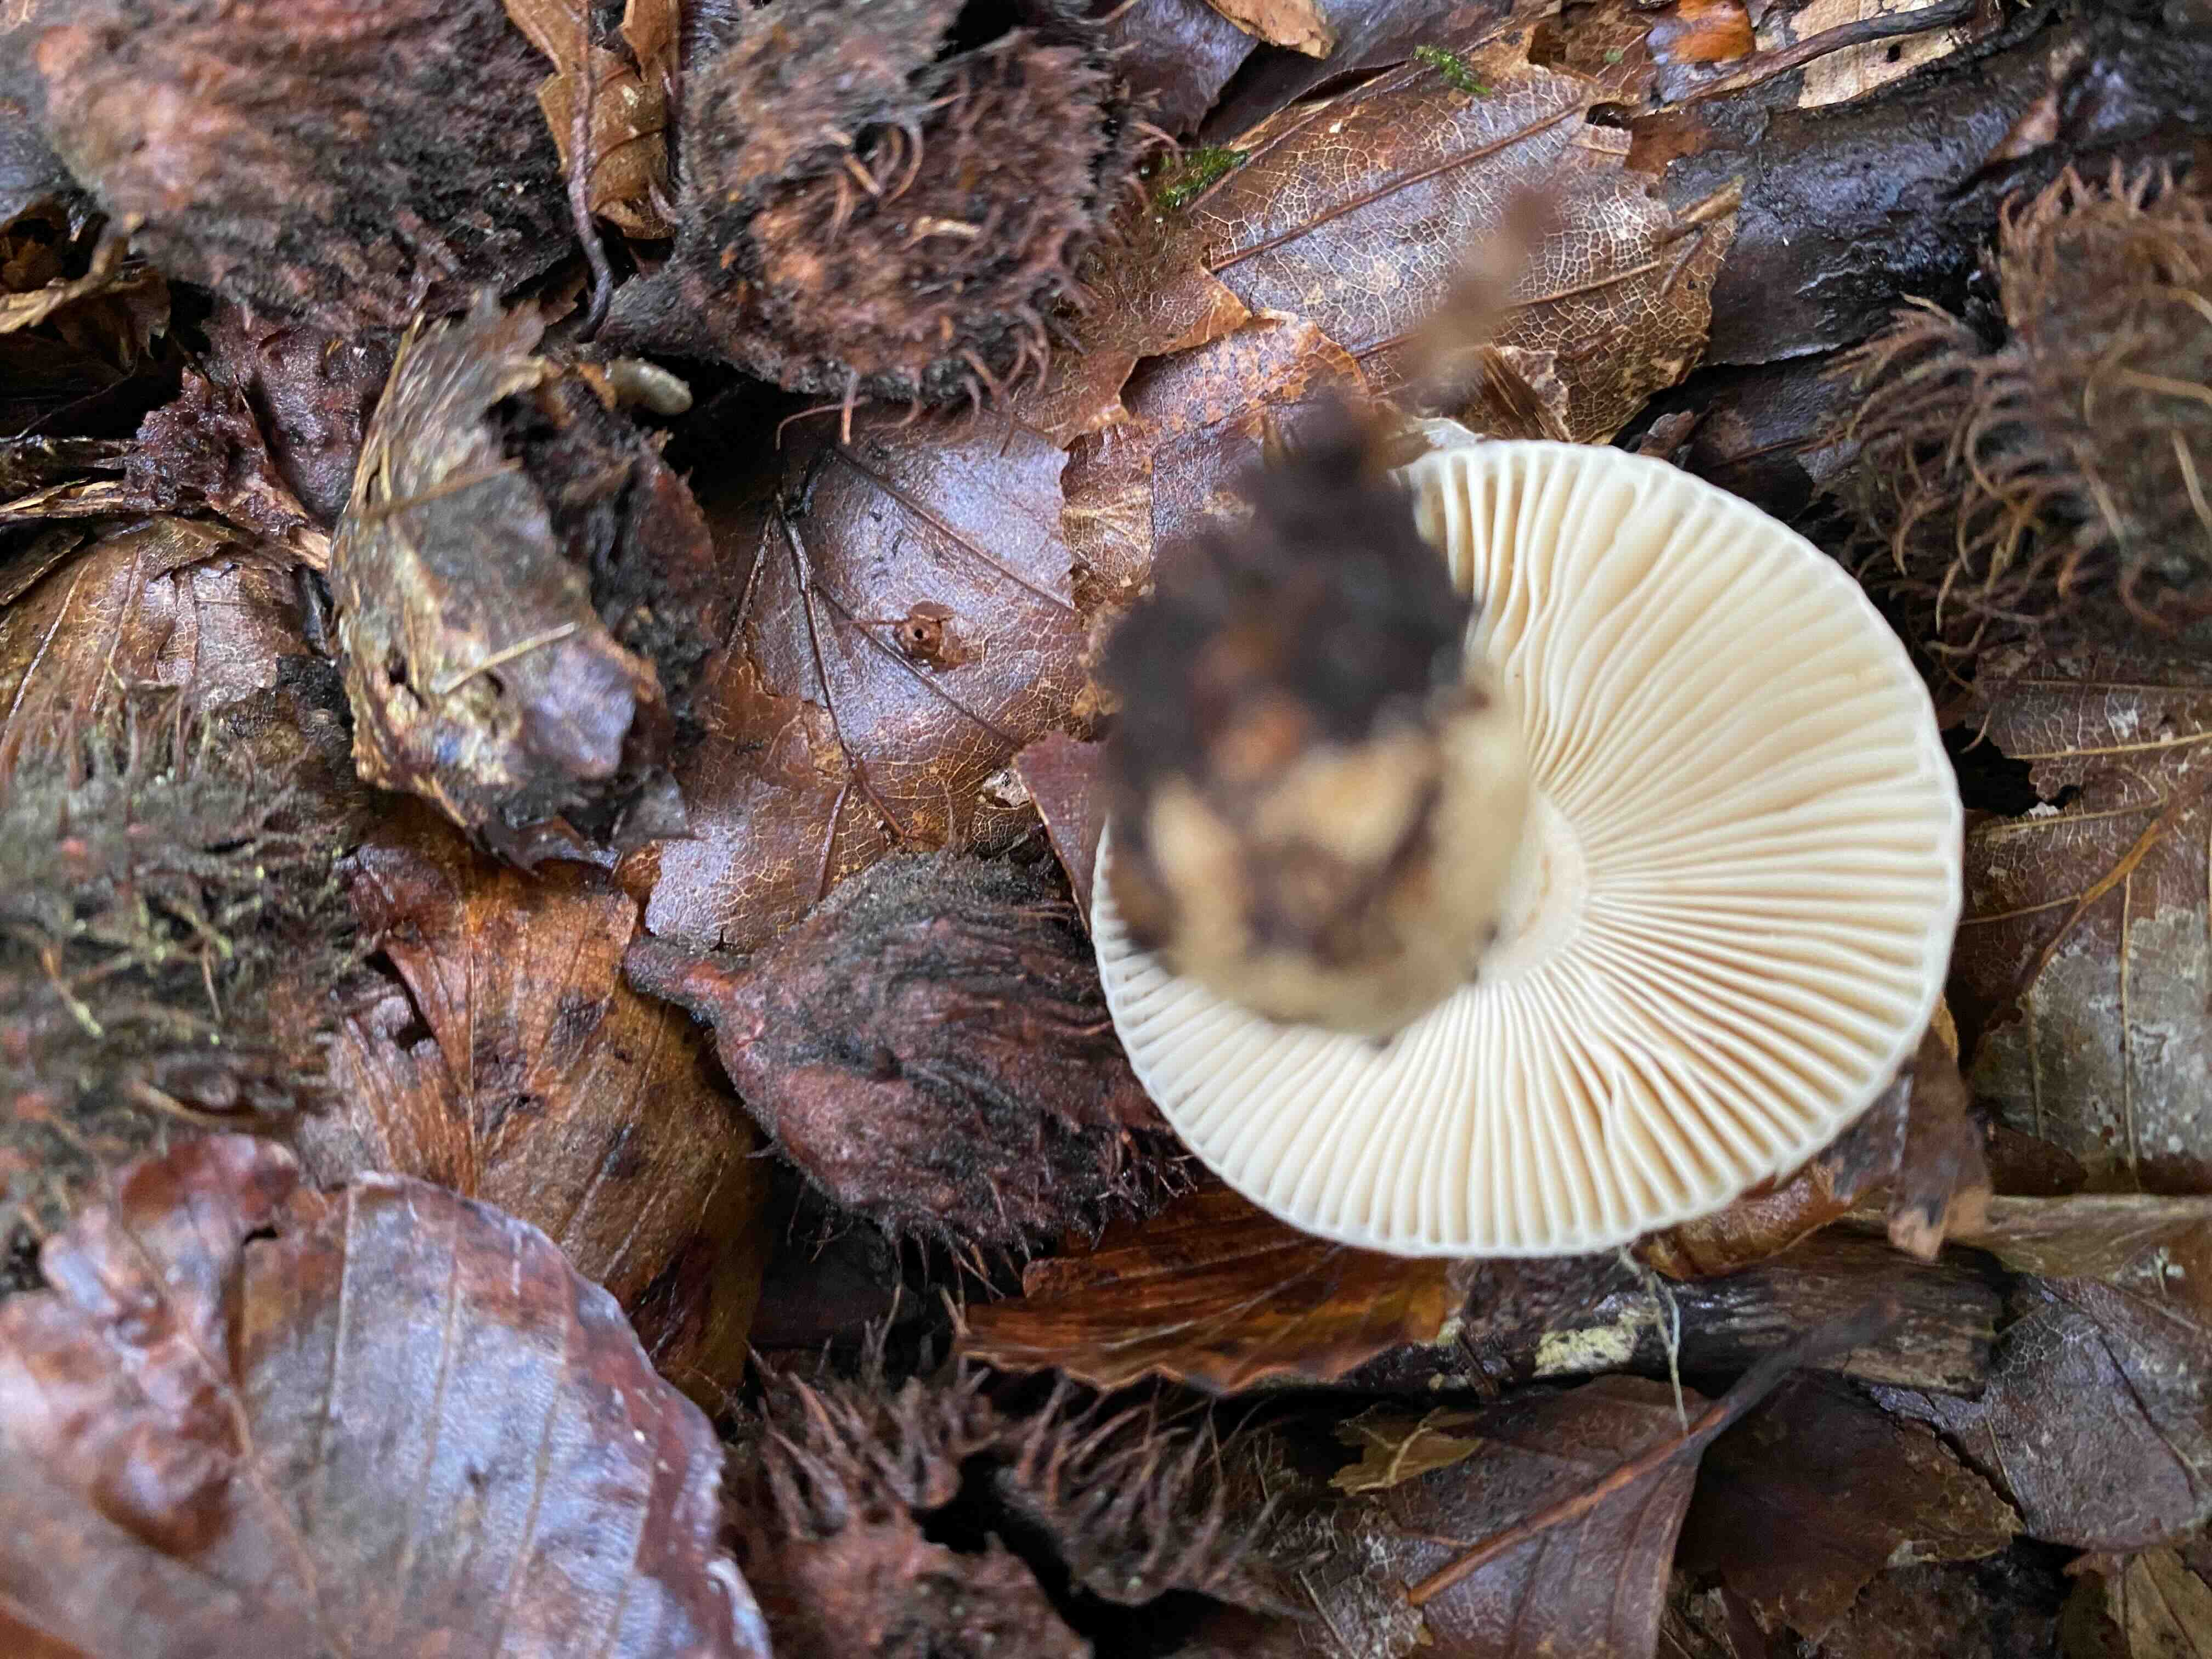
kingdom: Fungi
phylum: Basidiomycota
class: Agaricomycetes
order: Russulales
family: Russulaceae
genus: Russula
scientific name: Russula fellea
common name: galde-skørhat
